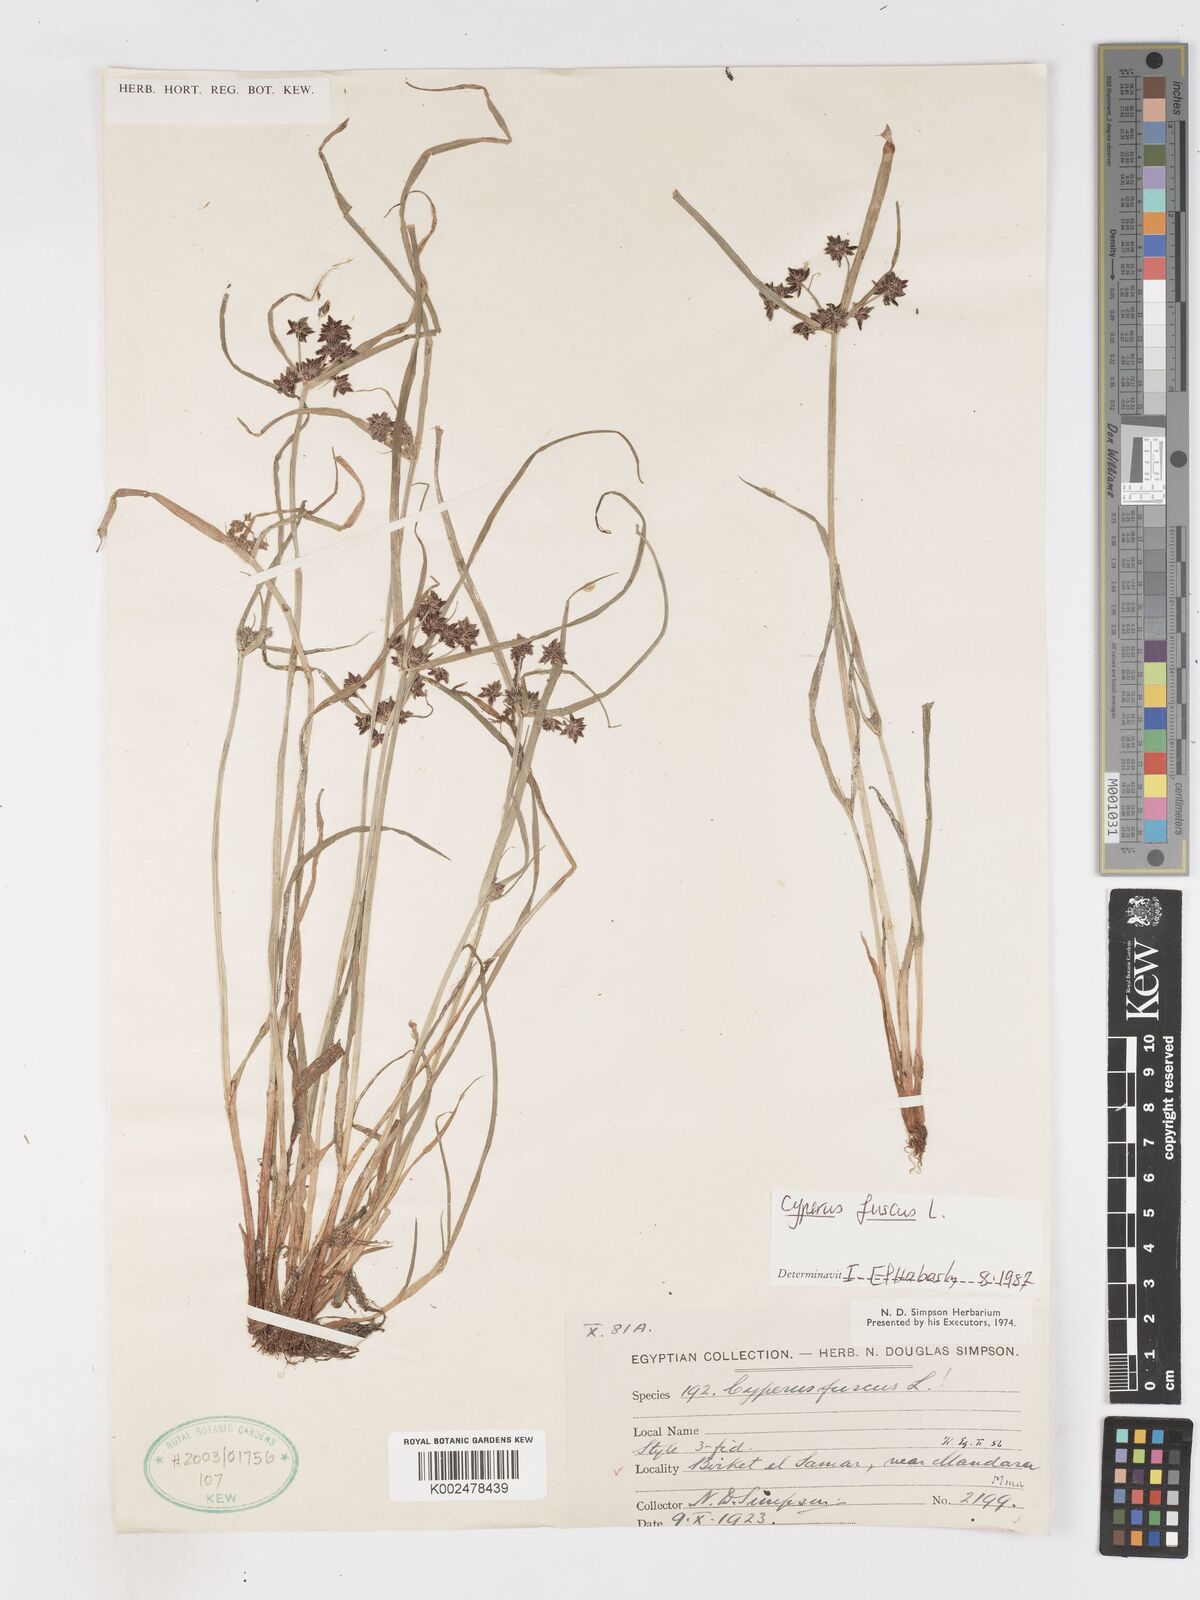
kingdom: Plantae
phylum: Tracheophyta
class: Liliopsida
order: Poales
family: Cyperaceae
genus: Cyperus
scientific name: Cyperus fuscus
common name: Brown galingale
